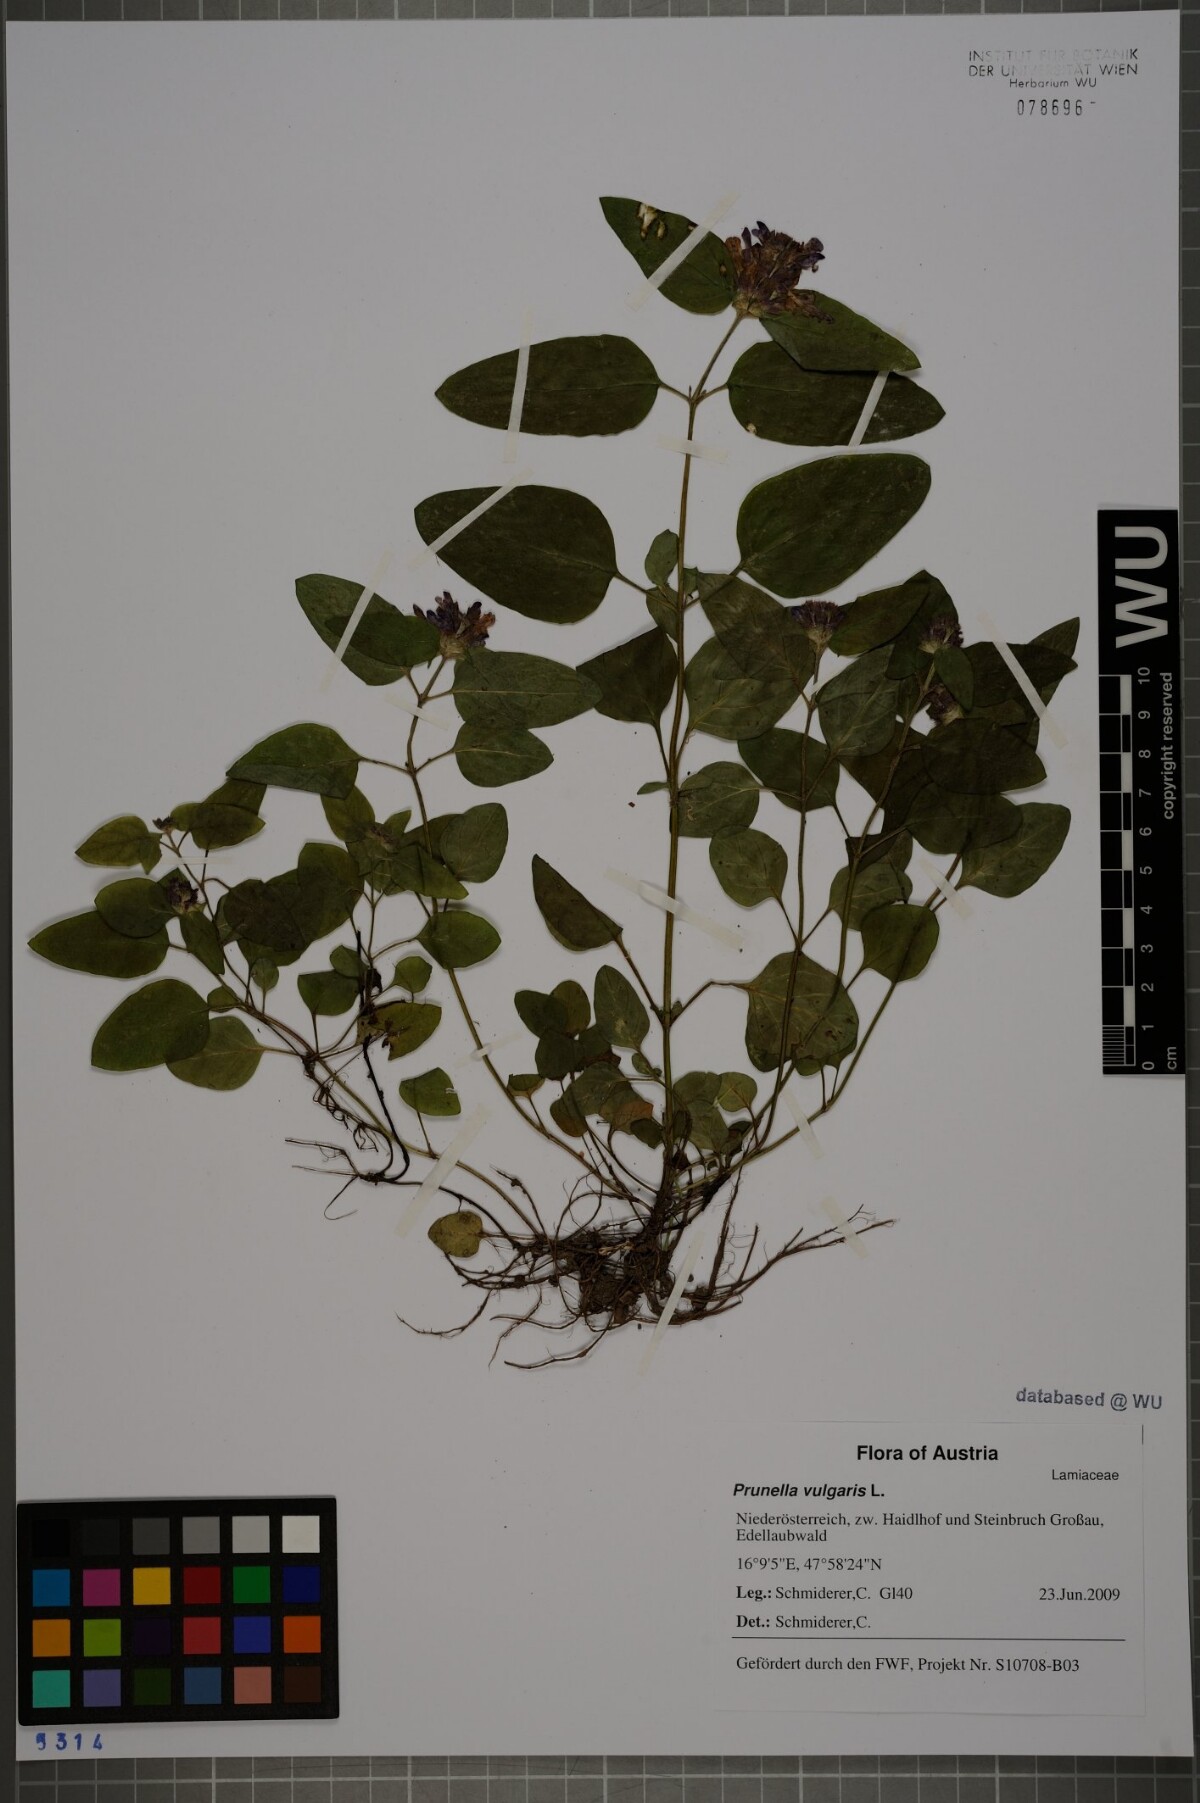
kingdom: Plantae
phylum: Tracheophyta
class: Magnoliopsida
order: Lamiales
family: Lamiaceae
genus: Prunella
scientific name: Prunella vulgaris
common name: Heal-all
